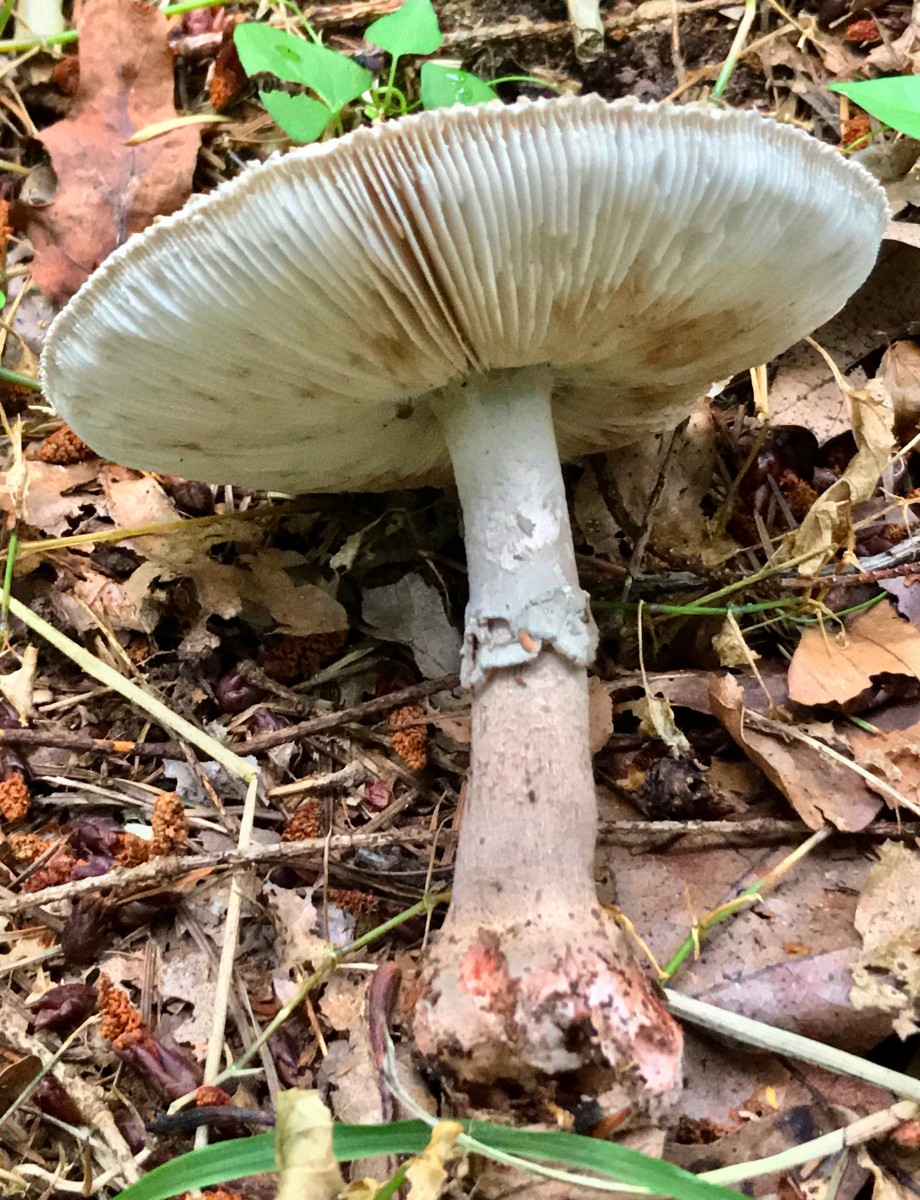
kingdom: Fungi
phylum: Basidiomycota
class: Agaricomycetes
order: Agaricales
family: Amanitaceae
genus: Amanita
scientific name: Amanita rubescens
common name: rødmende fluesvamp
